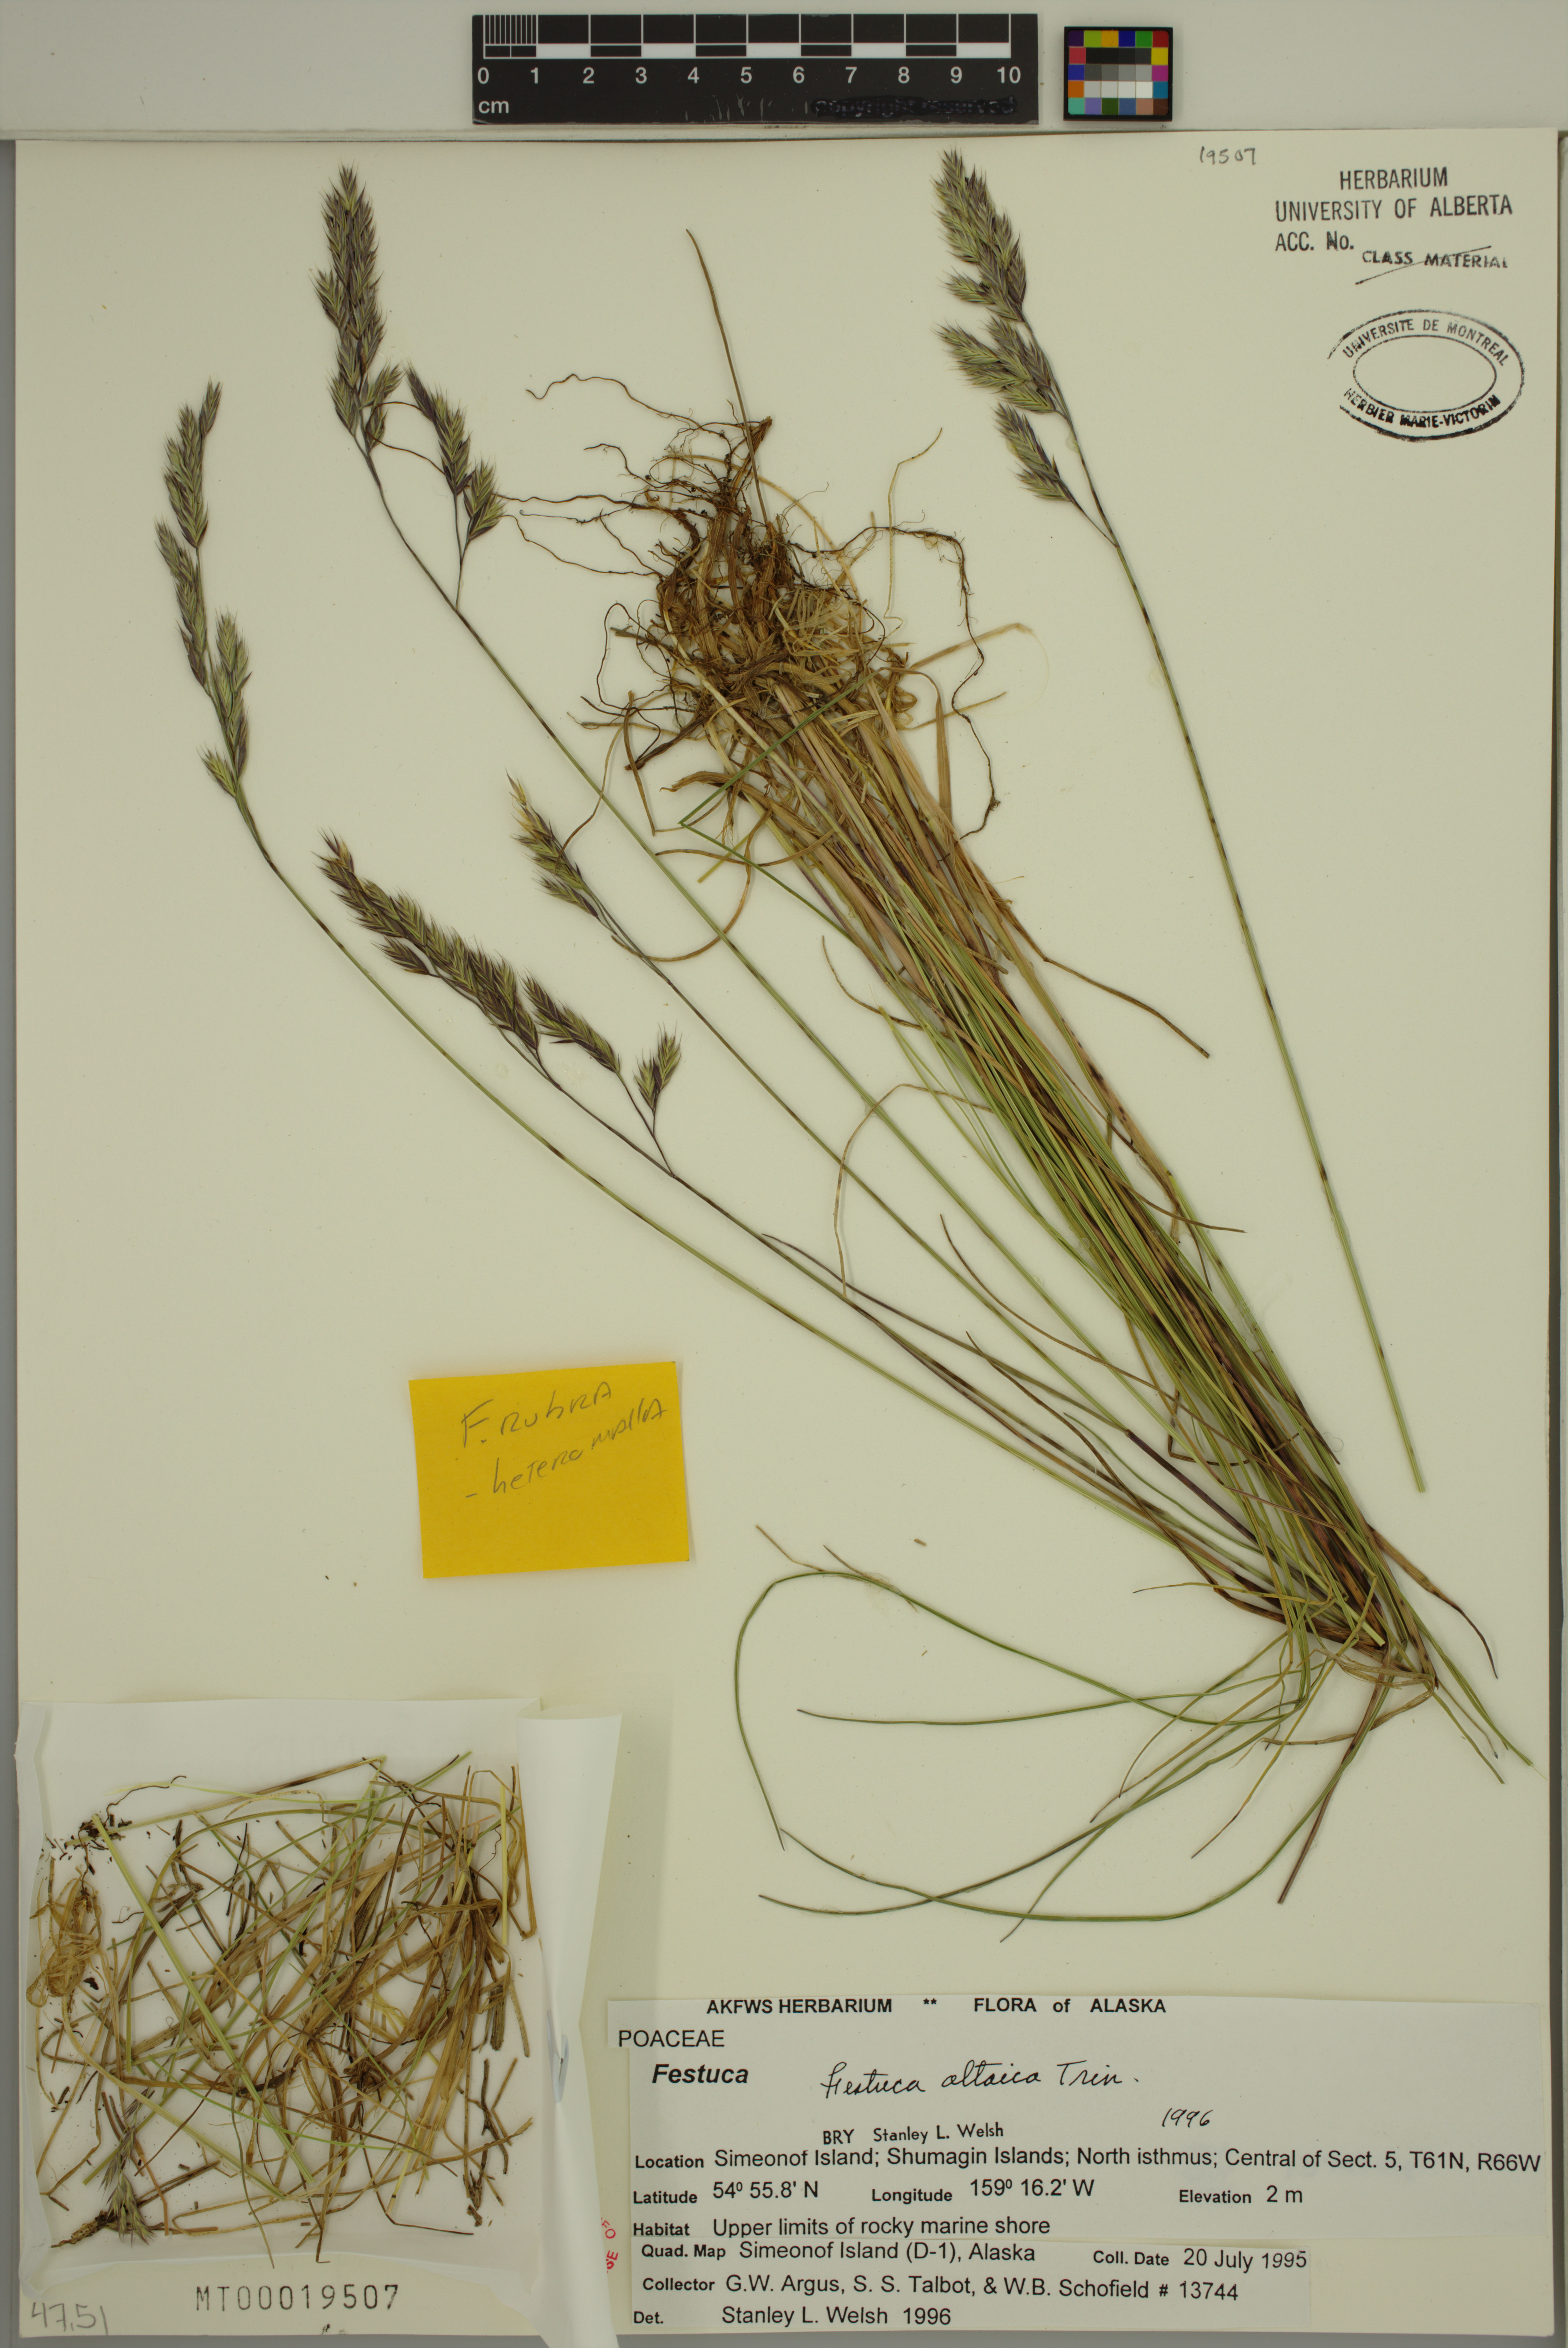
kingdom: Plantae
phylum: Tracheophyta
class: Liliopsida
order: Poales
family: Poaceae
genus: Festuca
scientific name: Festuca altaica
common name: Northern rough fescue
